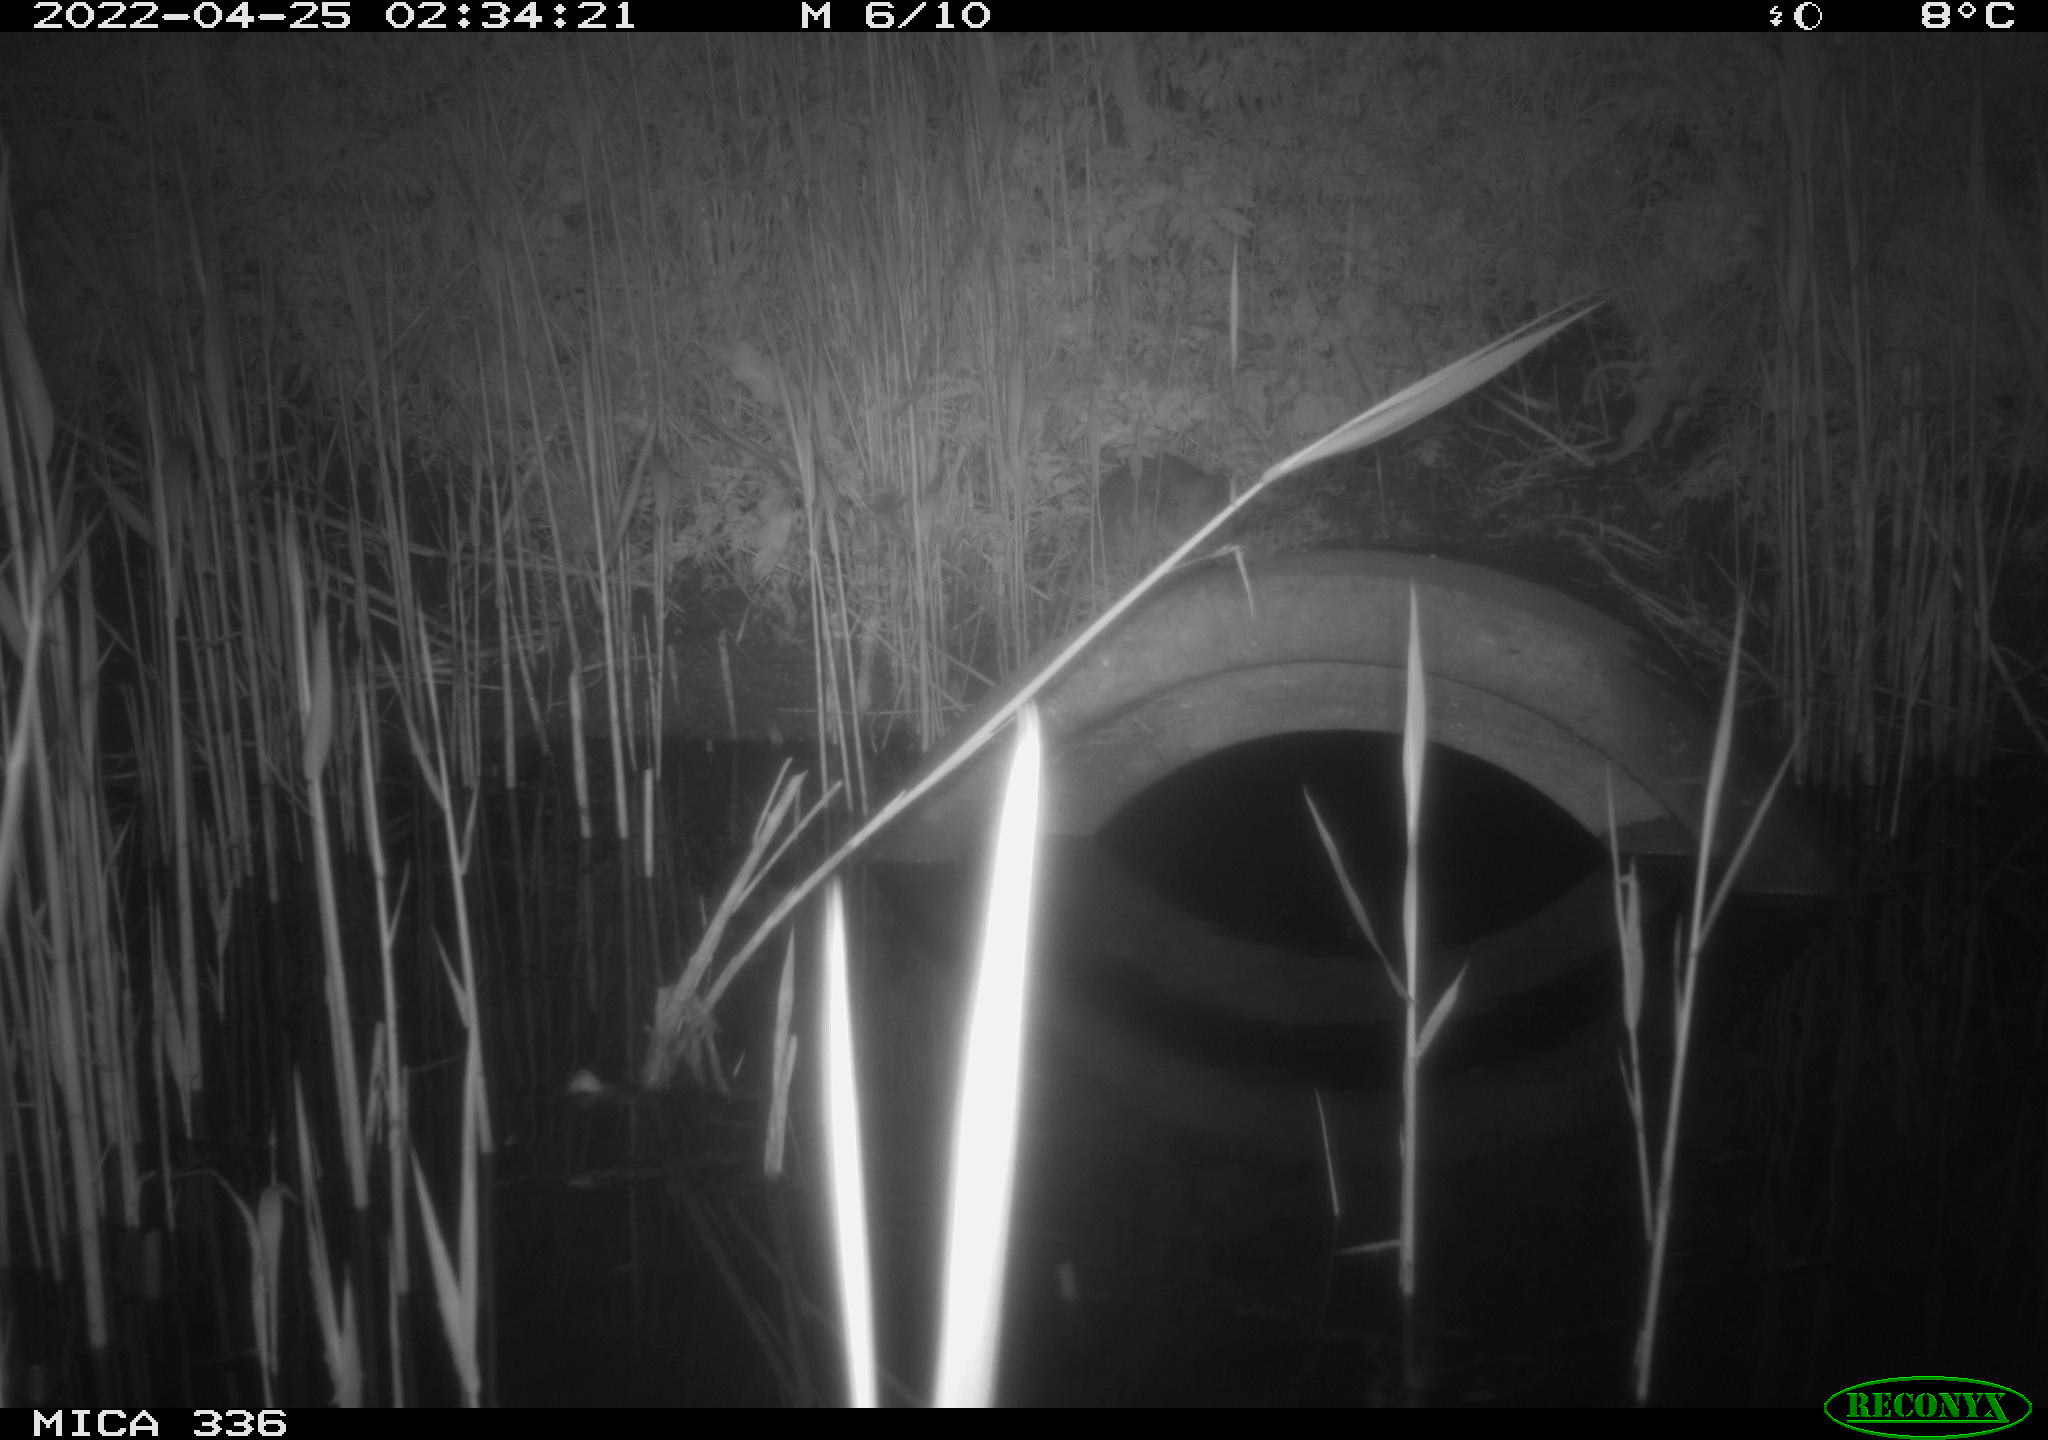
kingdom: Animalia
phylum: Chordata
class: Mammalia
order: Rodentia
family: Muridae
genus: Rattus
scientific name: Rattus norvegicus
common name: Brown rat
